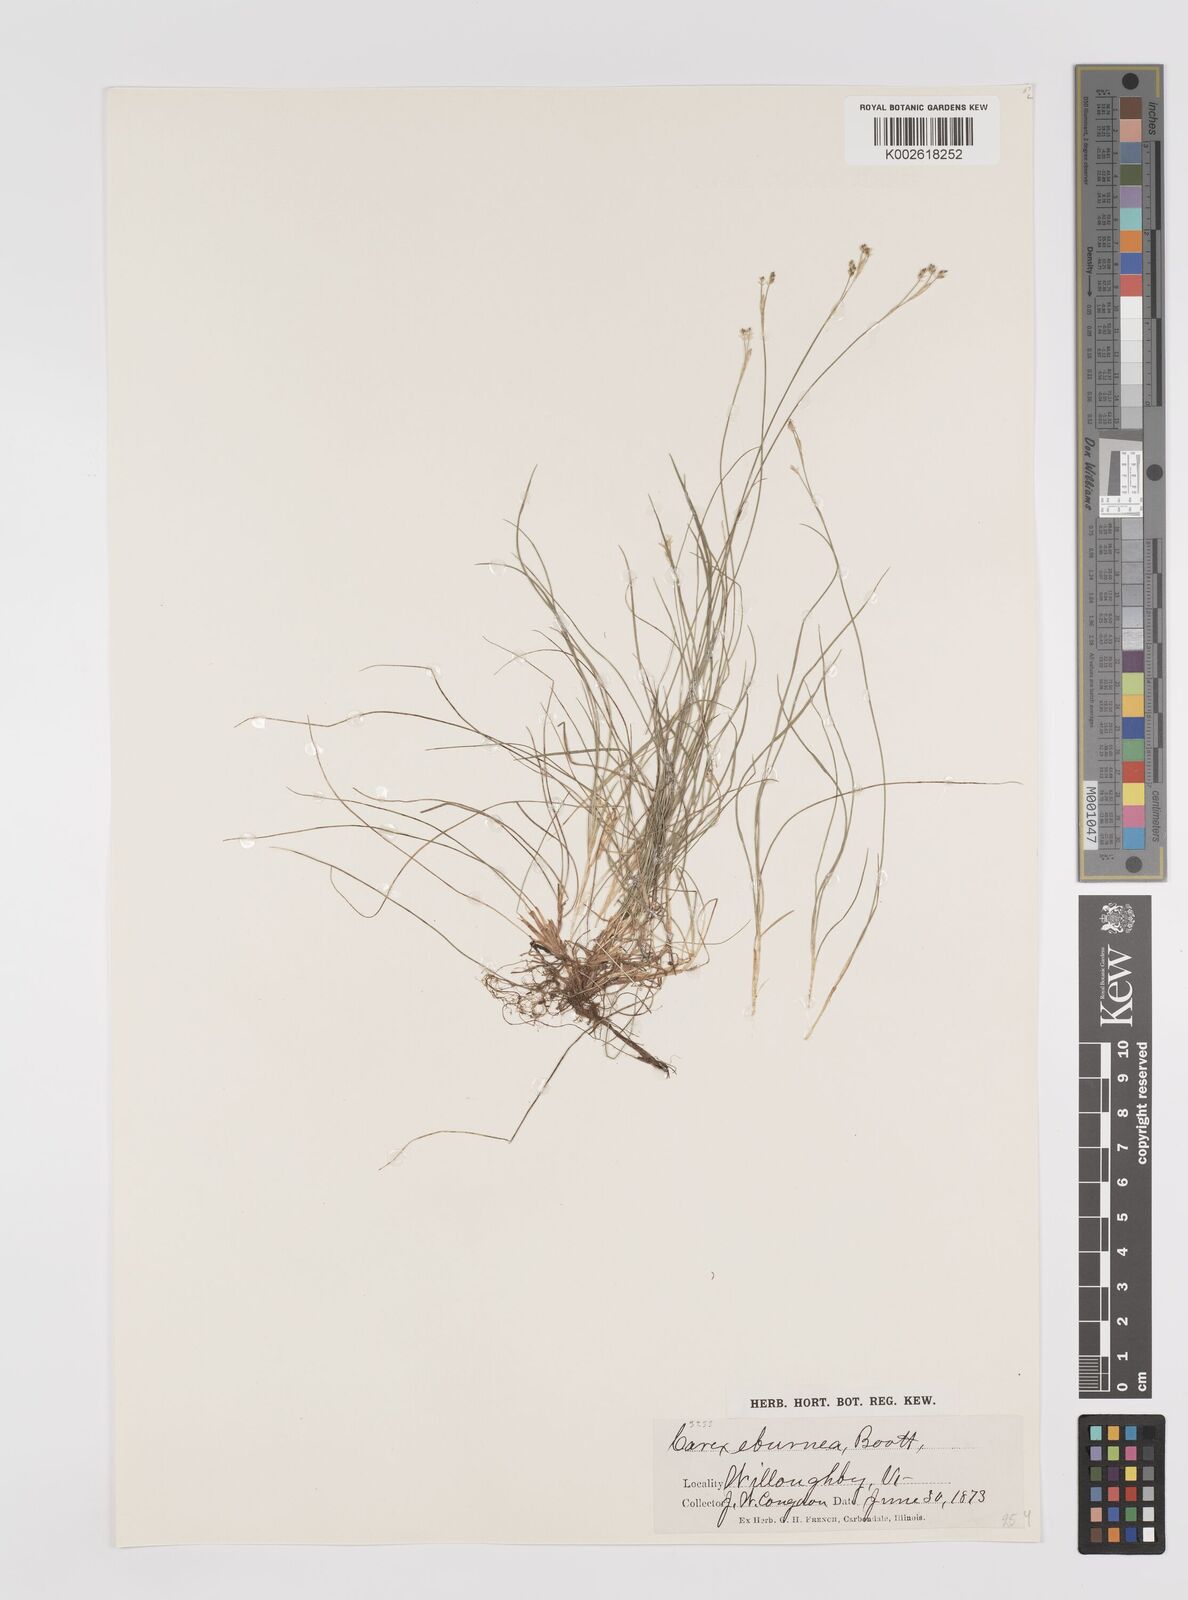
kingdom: Plantae
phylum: Tracheophyta
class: Liliopsida
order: Poales
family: Cyperaceae
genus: Carex
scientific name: Carex eburnea
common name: Bristle-leaved sedge
